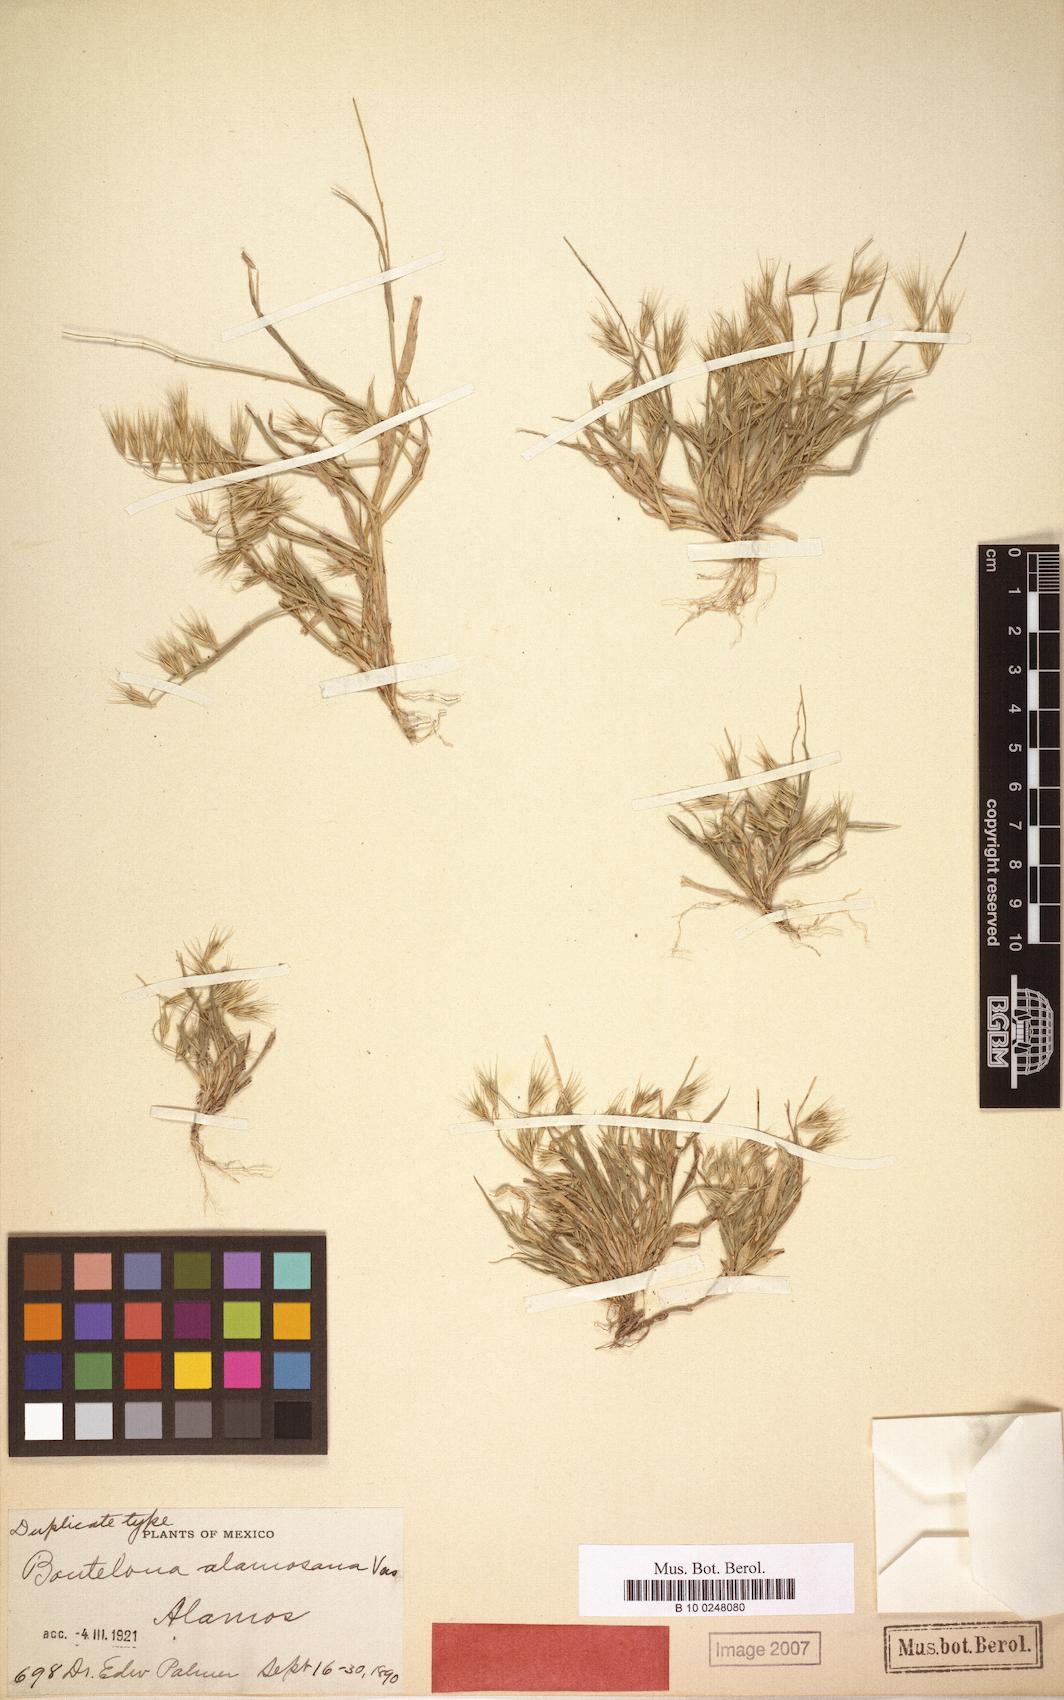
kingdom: Plantae
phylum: Tracheophyta
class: Liliopsida
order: Poales
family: Poaceae
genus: Bouteloua
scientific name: Bouteloua alamosana
